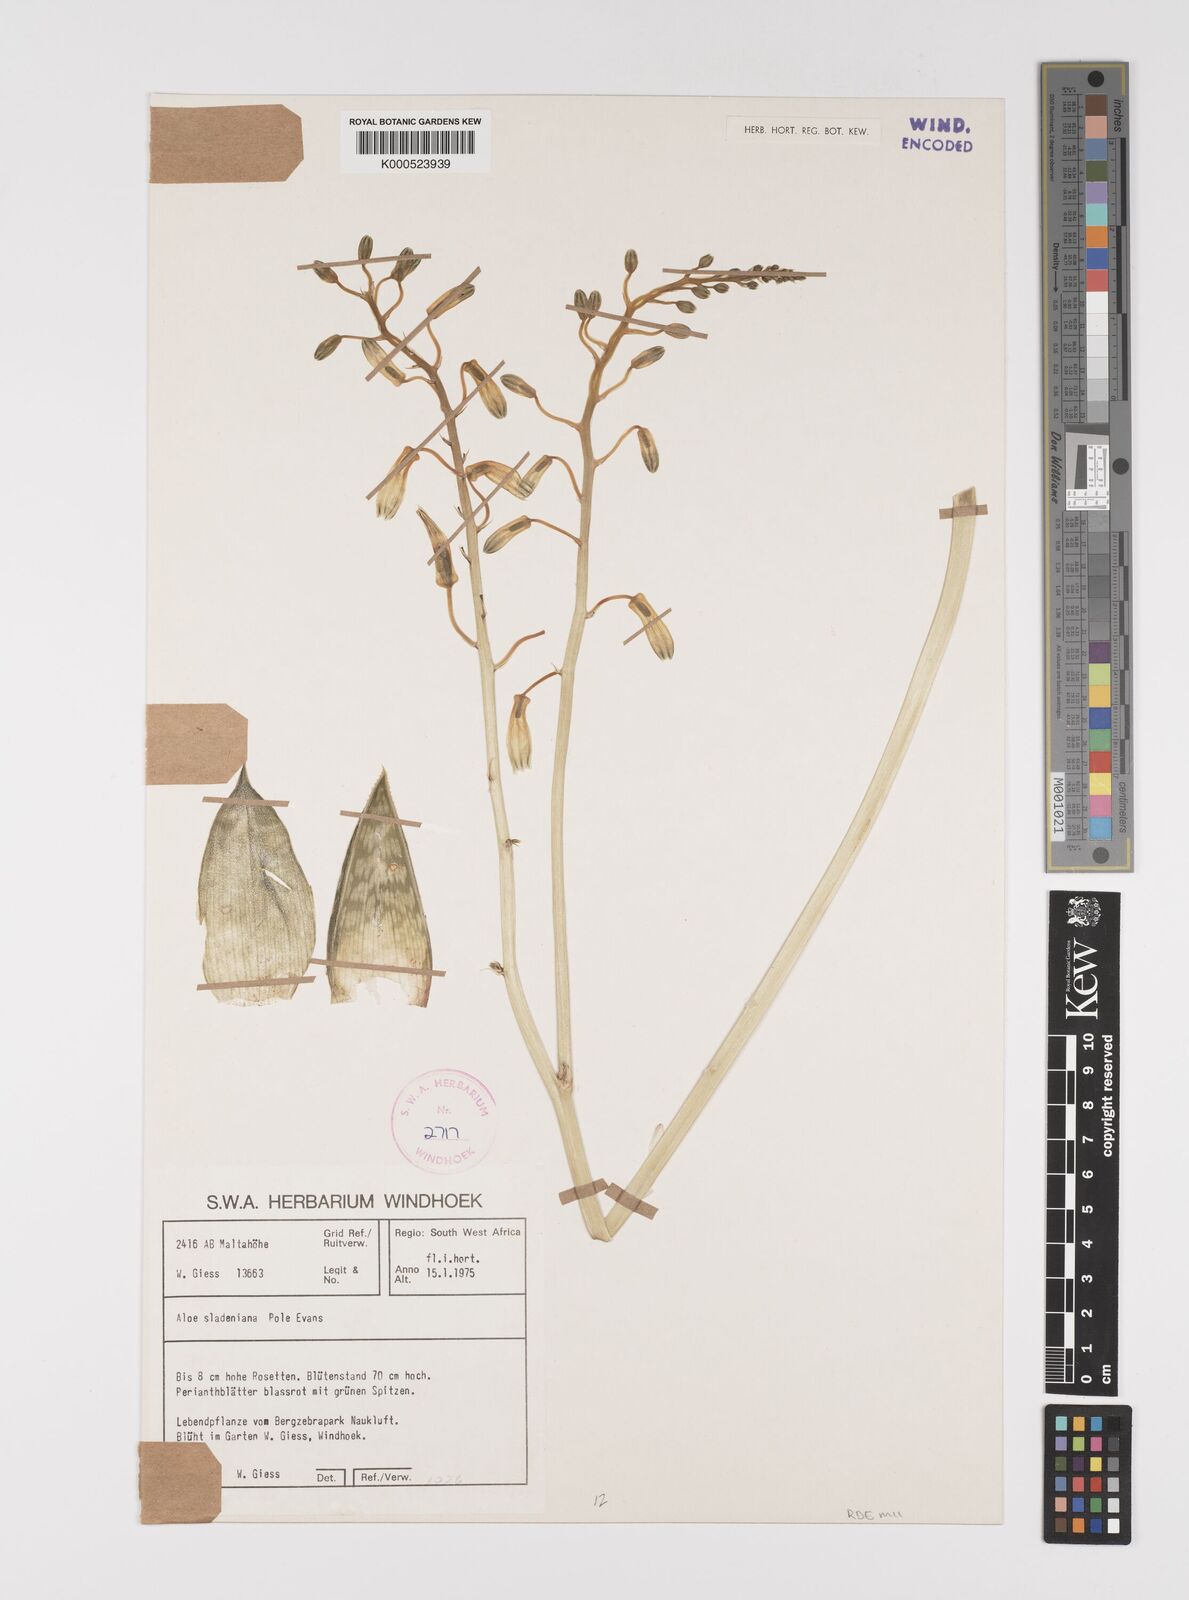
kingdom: Plantae
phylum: Tracheophyta
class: Liliopsida
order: Asparagales
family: Asphodelaceae
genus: Gonialoe
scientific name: Gonialoe sladeniana
